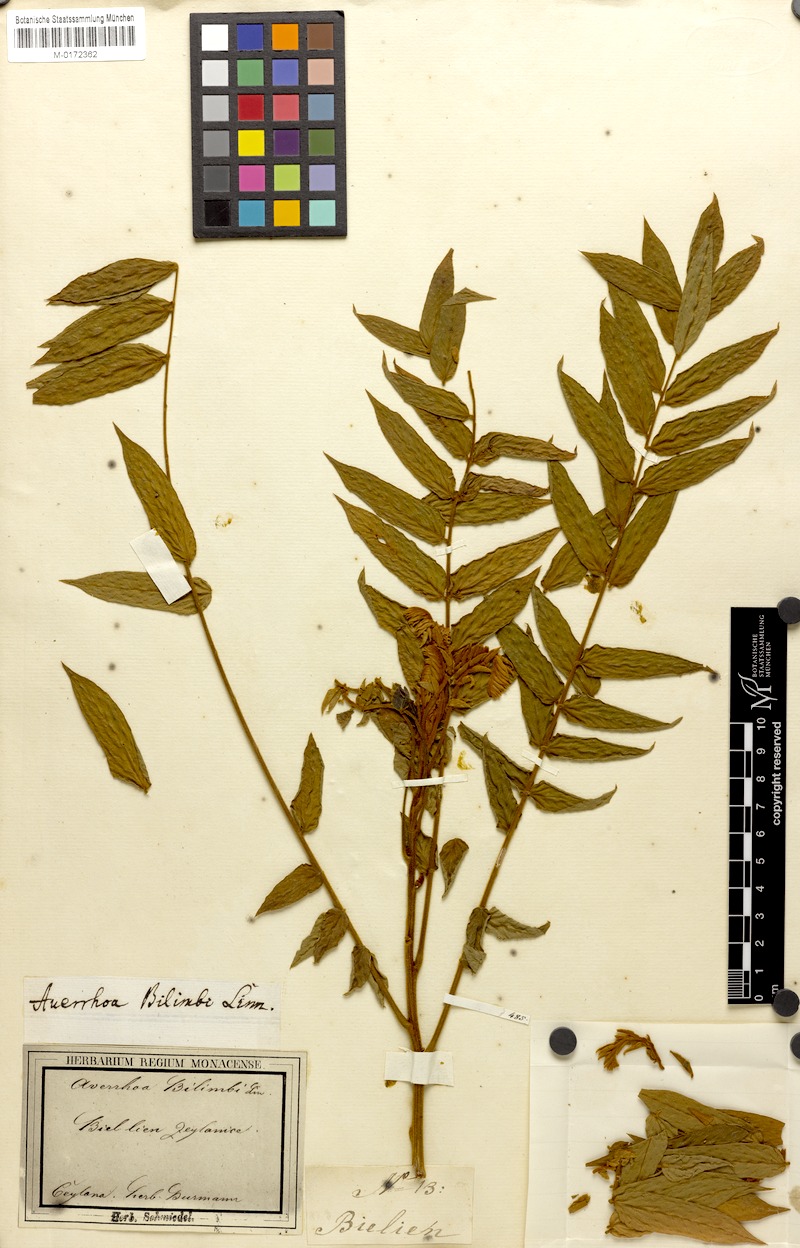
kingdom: Plantae
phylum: Tracheophyta
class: Magnoliopsida
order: Oxalidales
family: Oxalidaceae
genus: Averrhoa
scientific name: Averrhoa bilimbi
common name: Bilimbi
